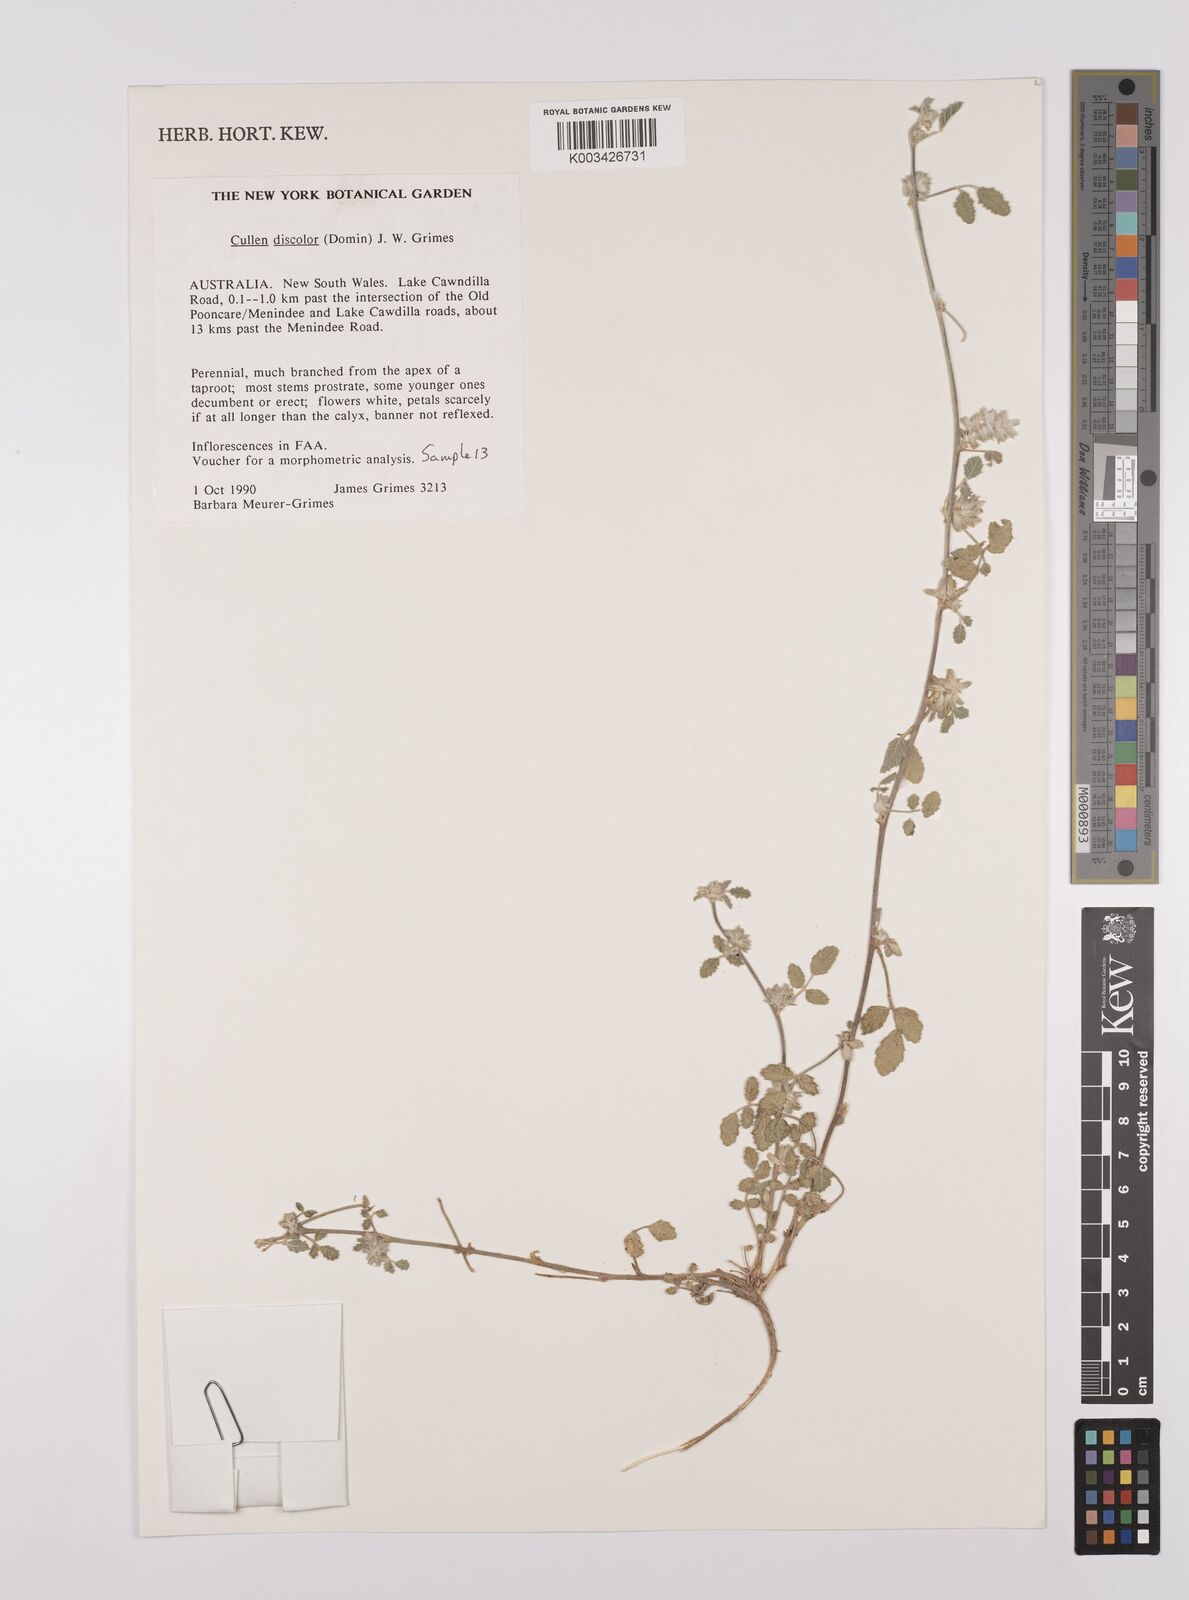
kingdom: Plantae
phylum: Tracheophyta
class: Magnoliopsida
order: Fabales
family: Fabaceae
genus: Cullen
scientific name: Cullen discolor
